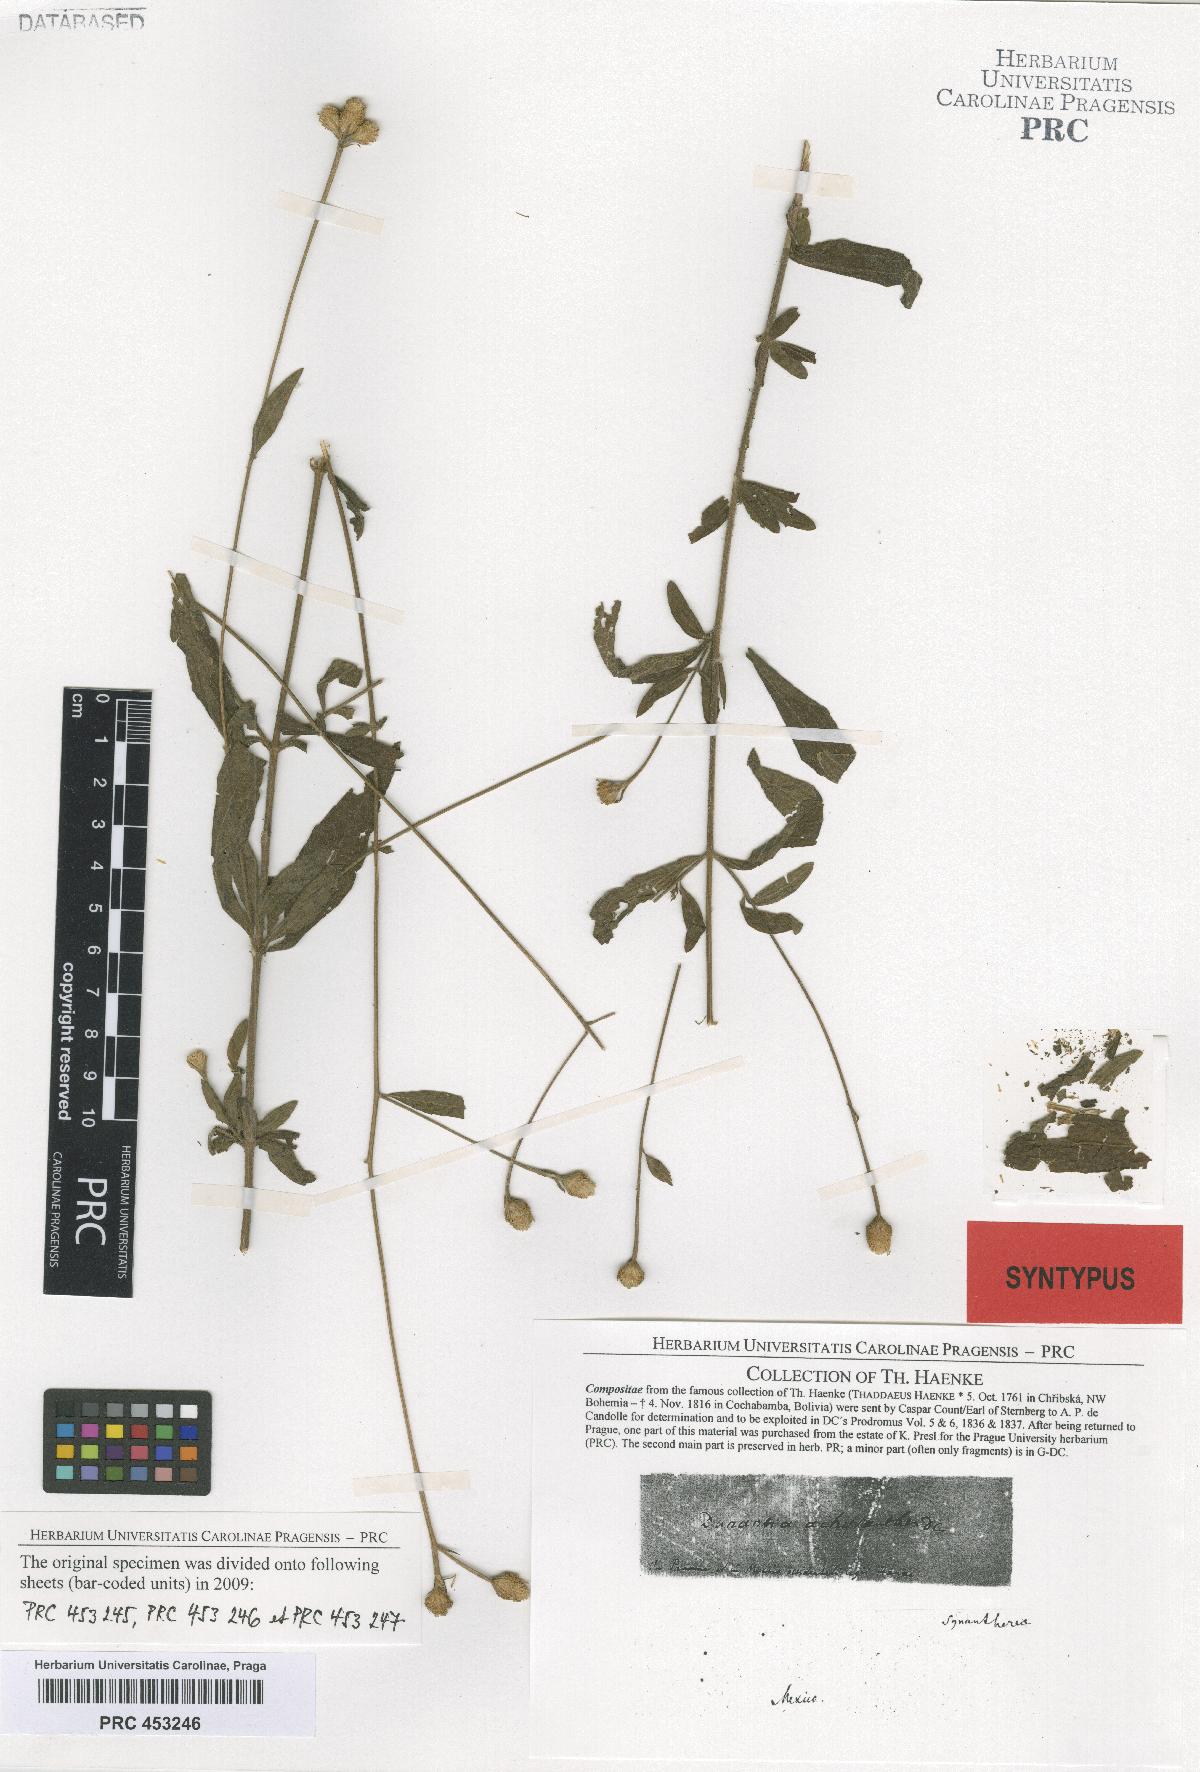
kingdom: Plantae
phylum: Tracheophyta
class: Magnoliopsida
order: Asterales
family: Asteraceae
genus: Isocarpha
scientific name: Isocarpha oppositifolia
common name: Rio grande pearlhead
